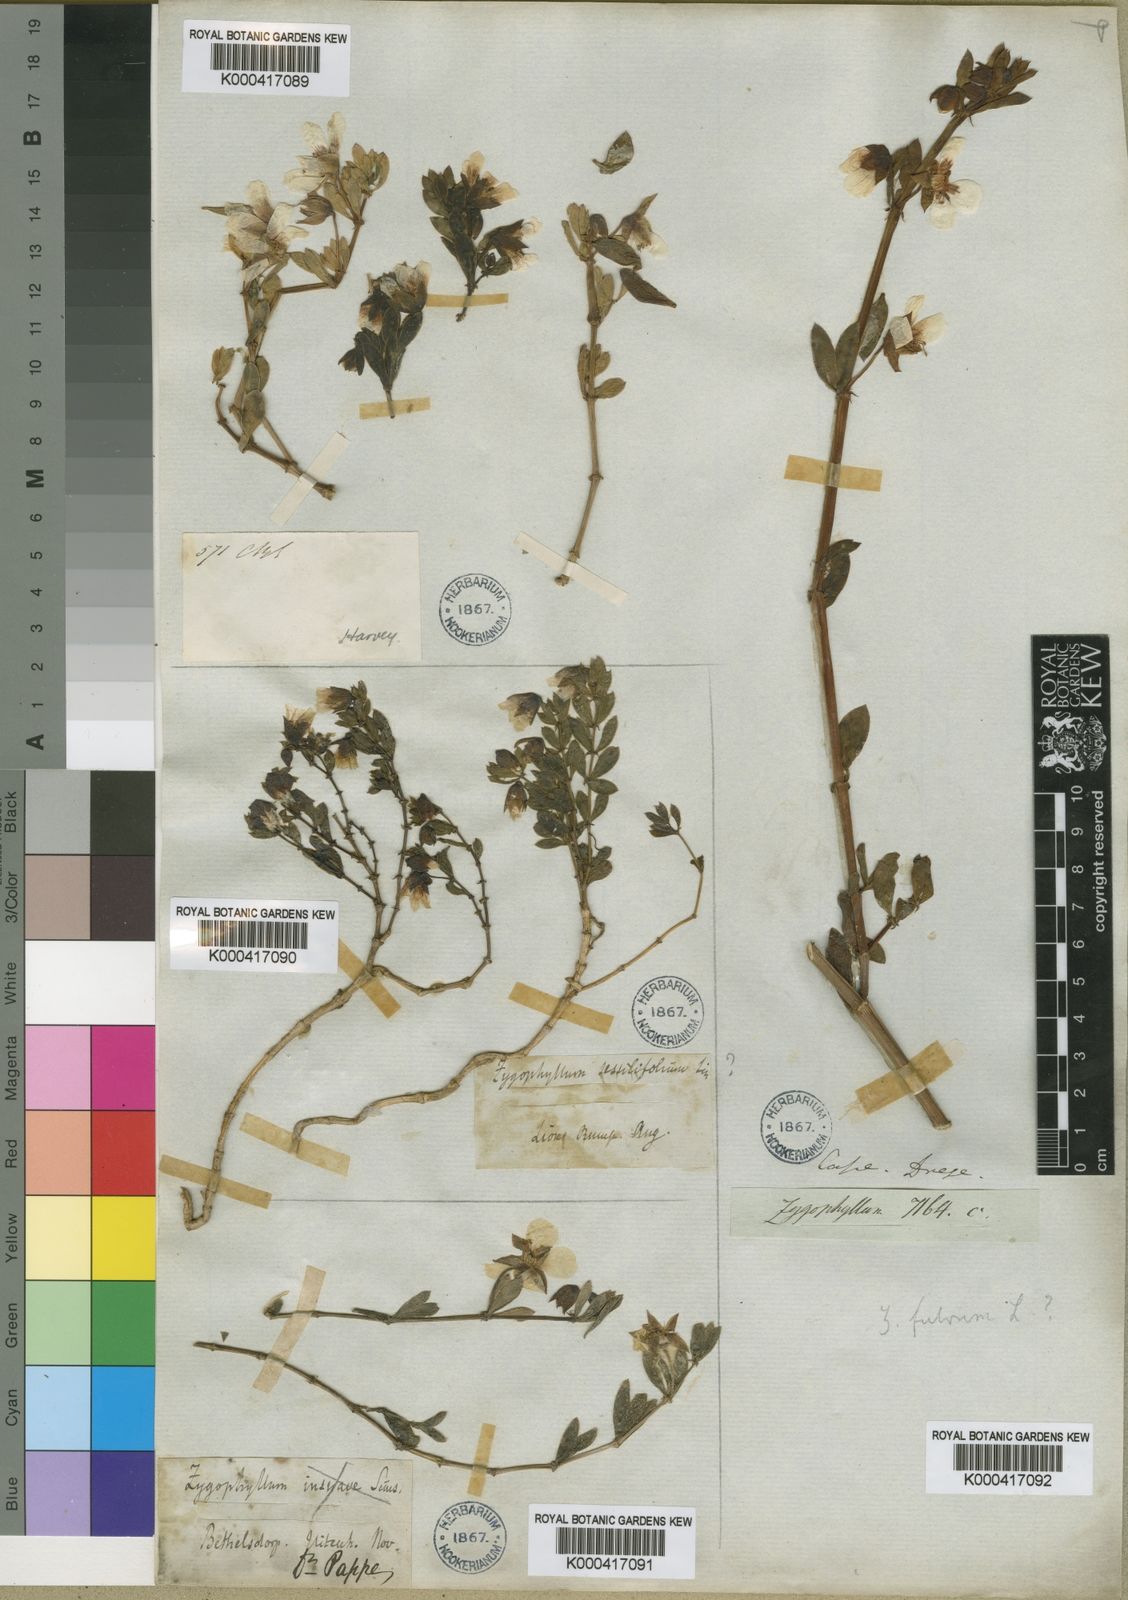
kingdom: Plantae
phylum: Tracheophyta
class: Magnoliopsida
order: Zygophyllales
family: Zygophyllaceae
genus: Roepera
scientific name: Roepera fulva
